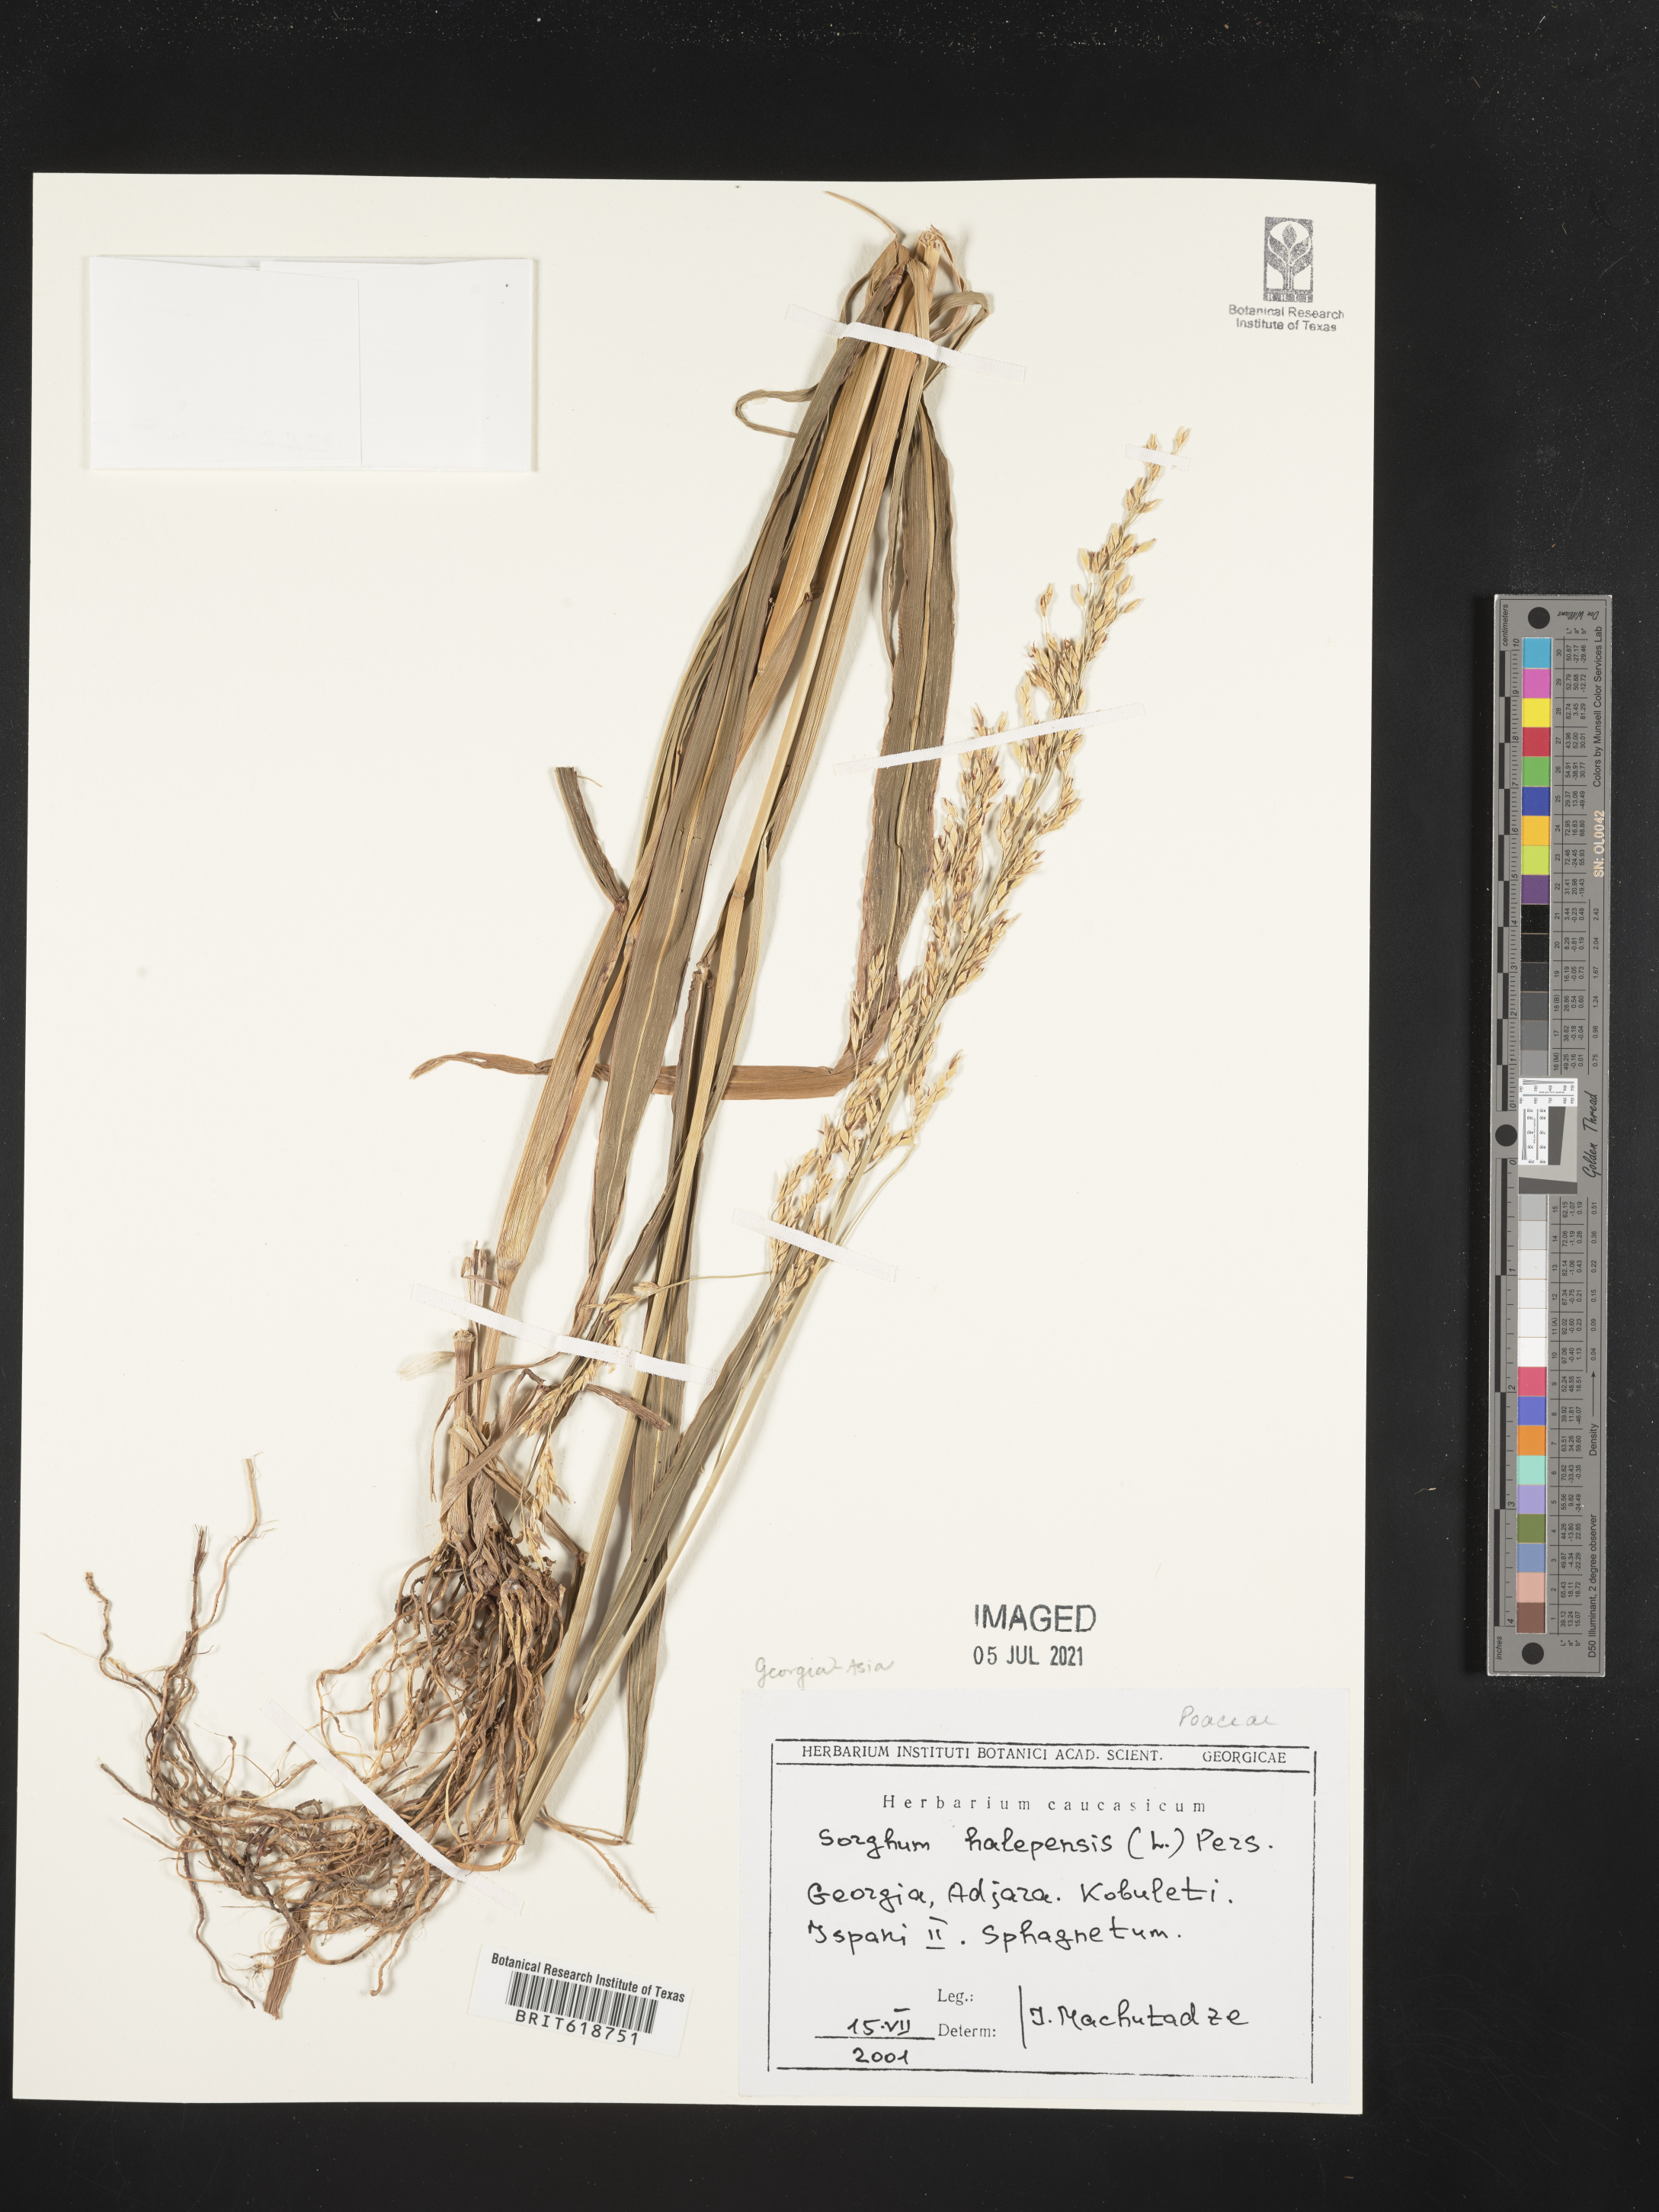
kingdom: Plantae
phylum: Tracheophyta
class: Liliopsida
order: Poales
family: Poaceae
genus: Sorghum
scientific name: Sorghum halepense
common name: Johnson-grass
